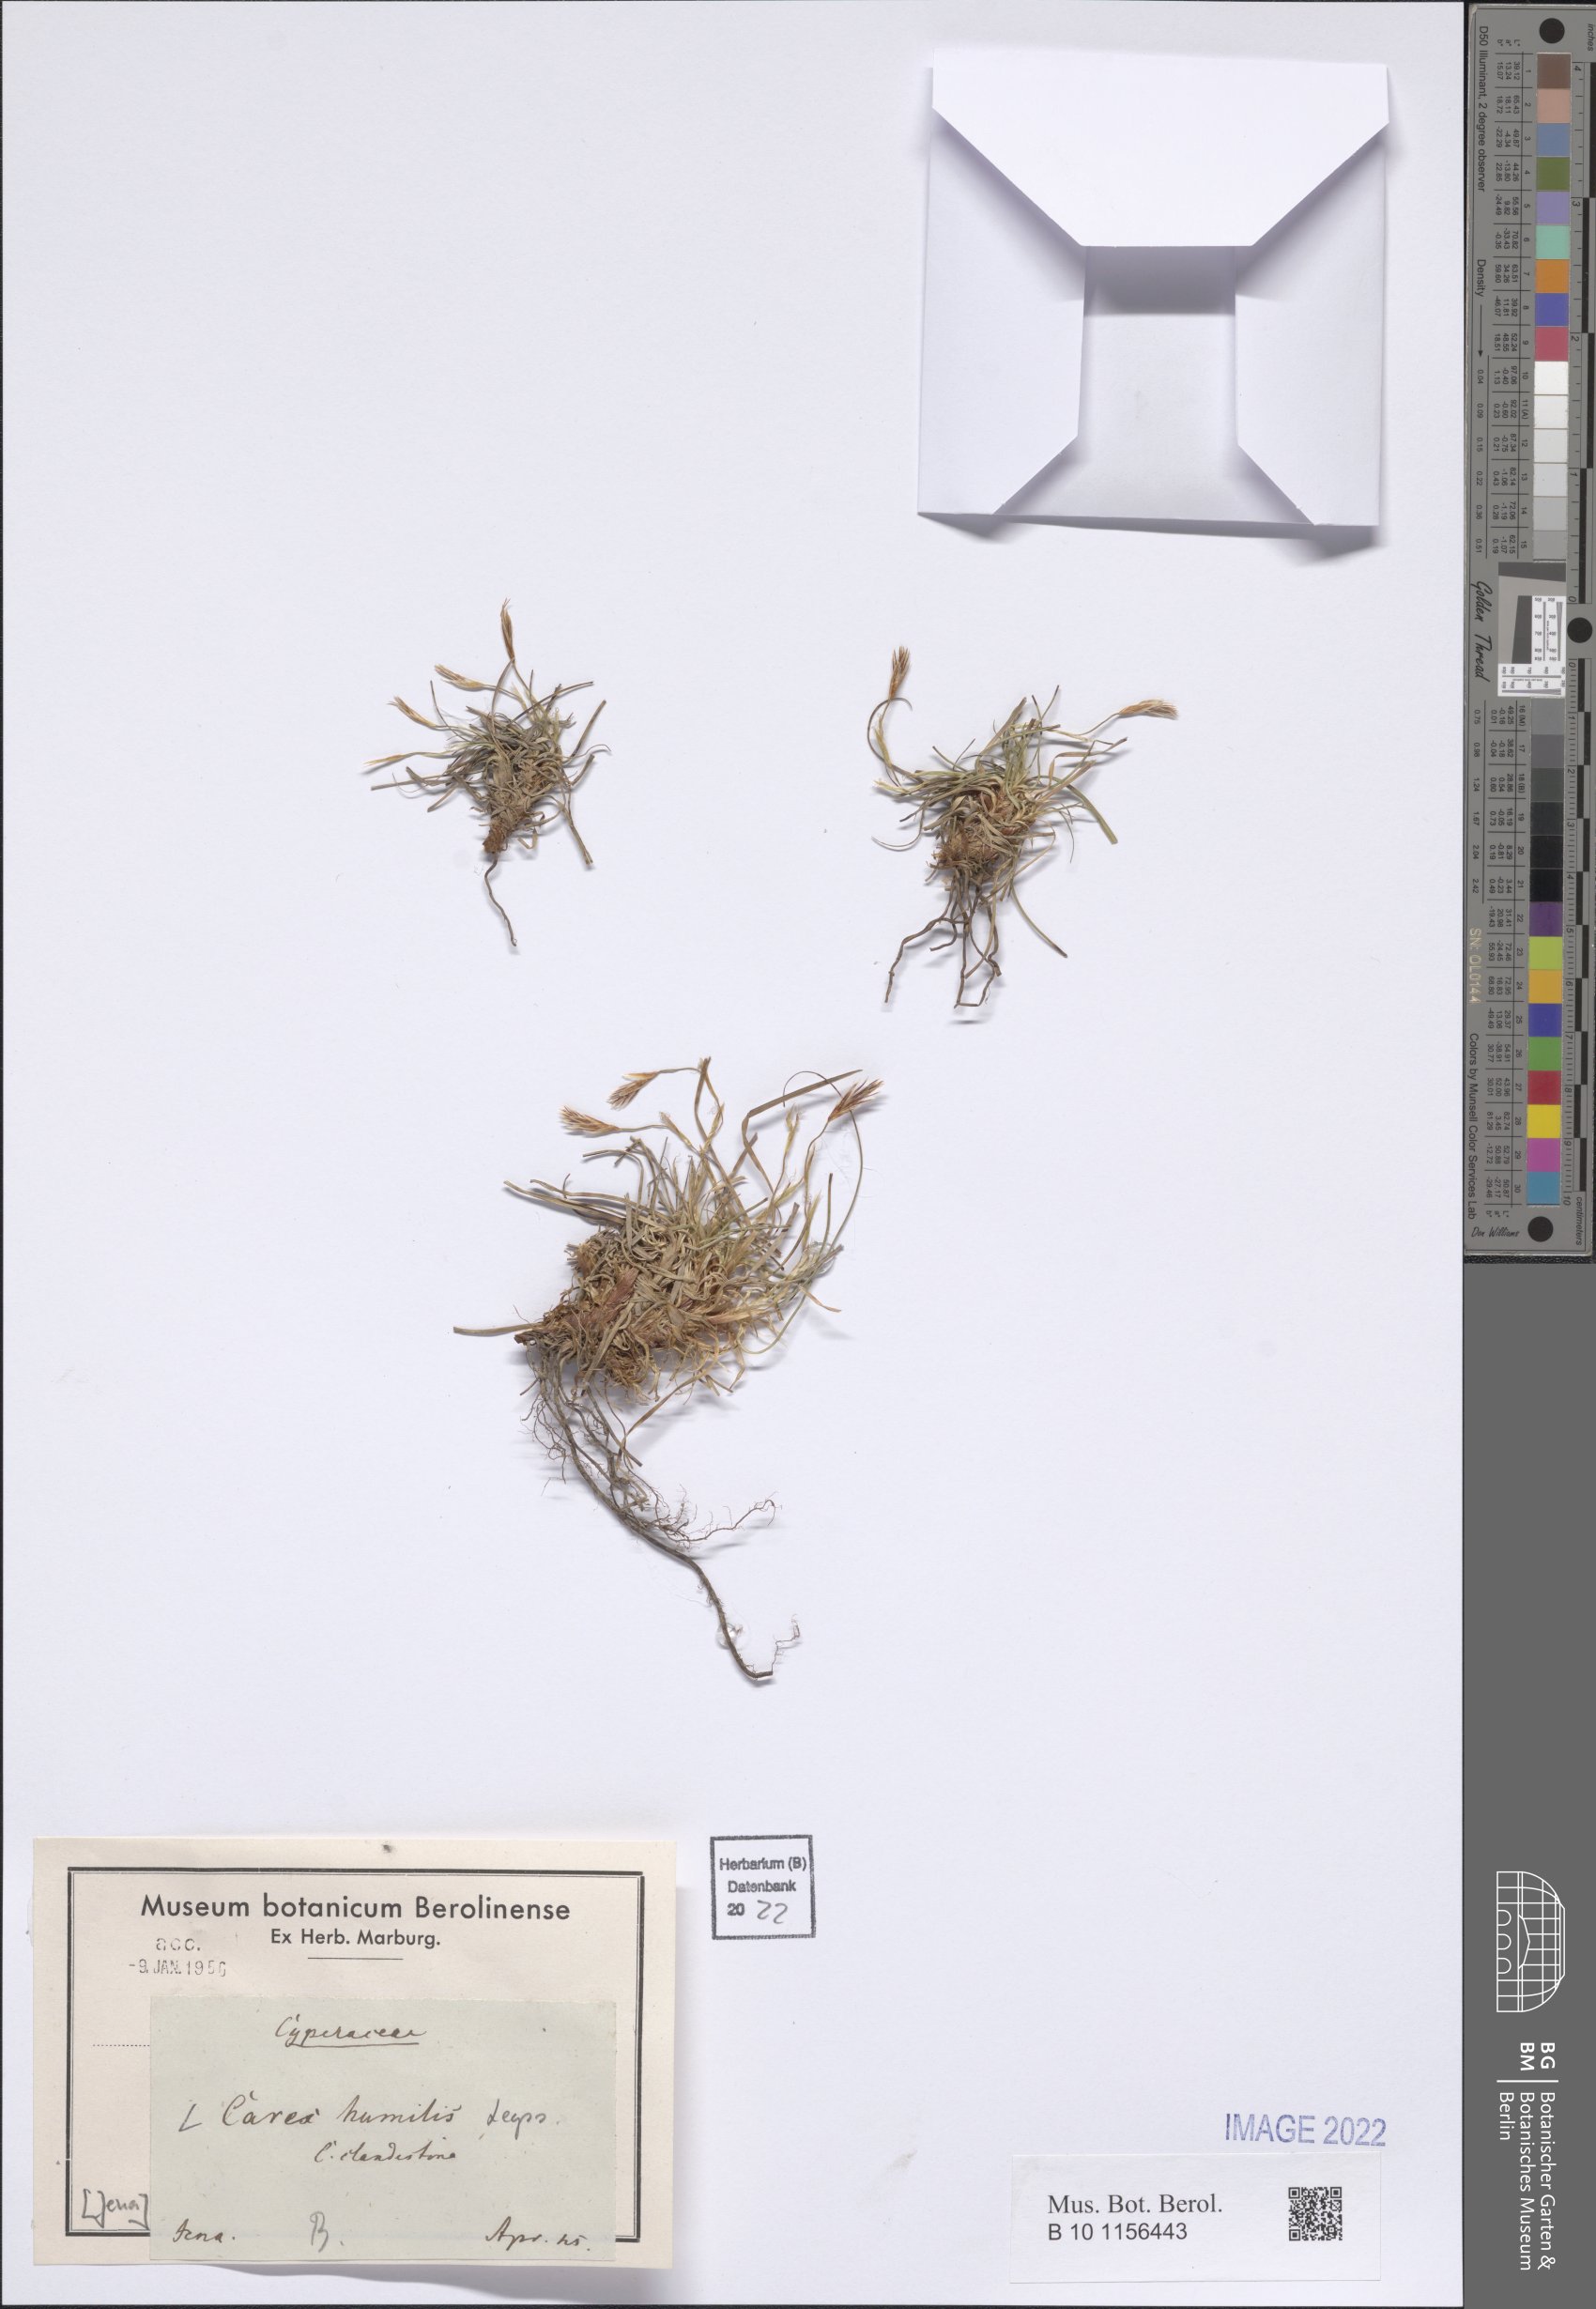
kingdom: Plantae
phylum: Tracheophyta
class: Liliopsida
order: Poales
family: Cyperaceae
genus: Carex
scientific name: Carex humilis
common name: Dwarf sedge
